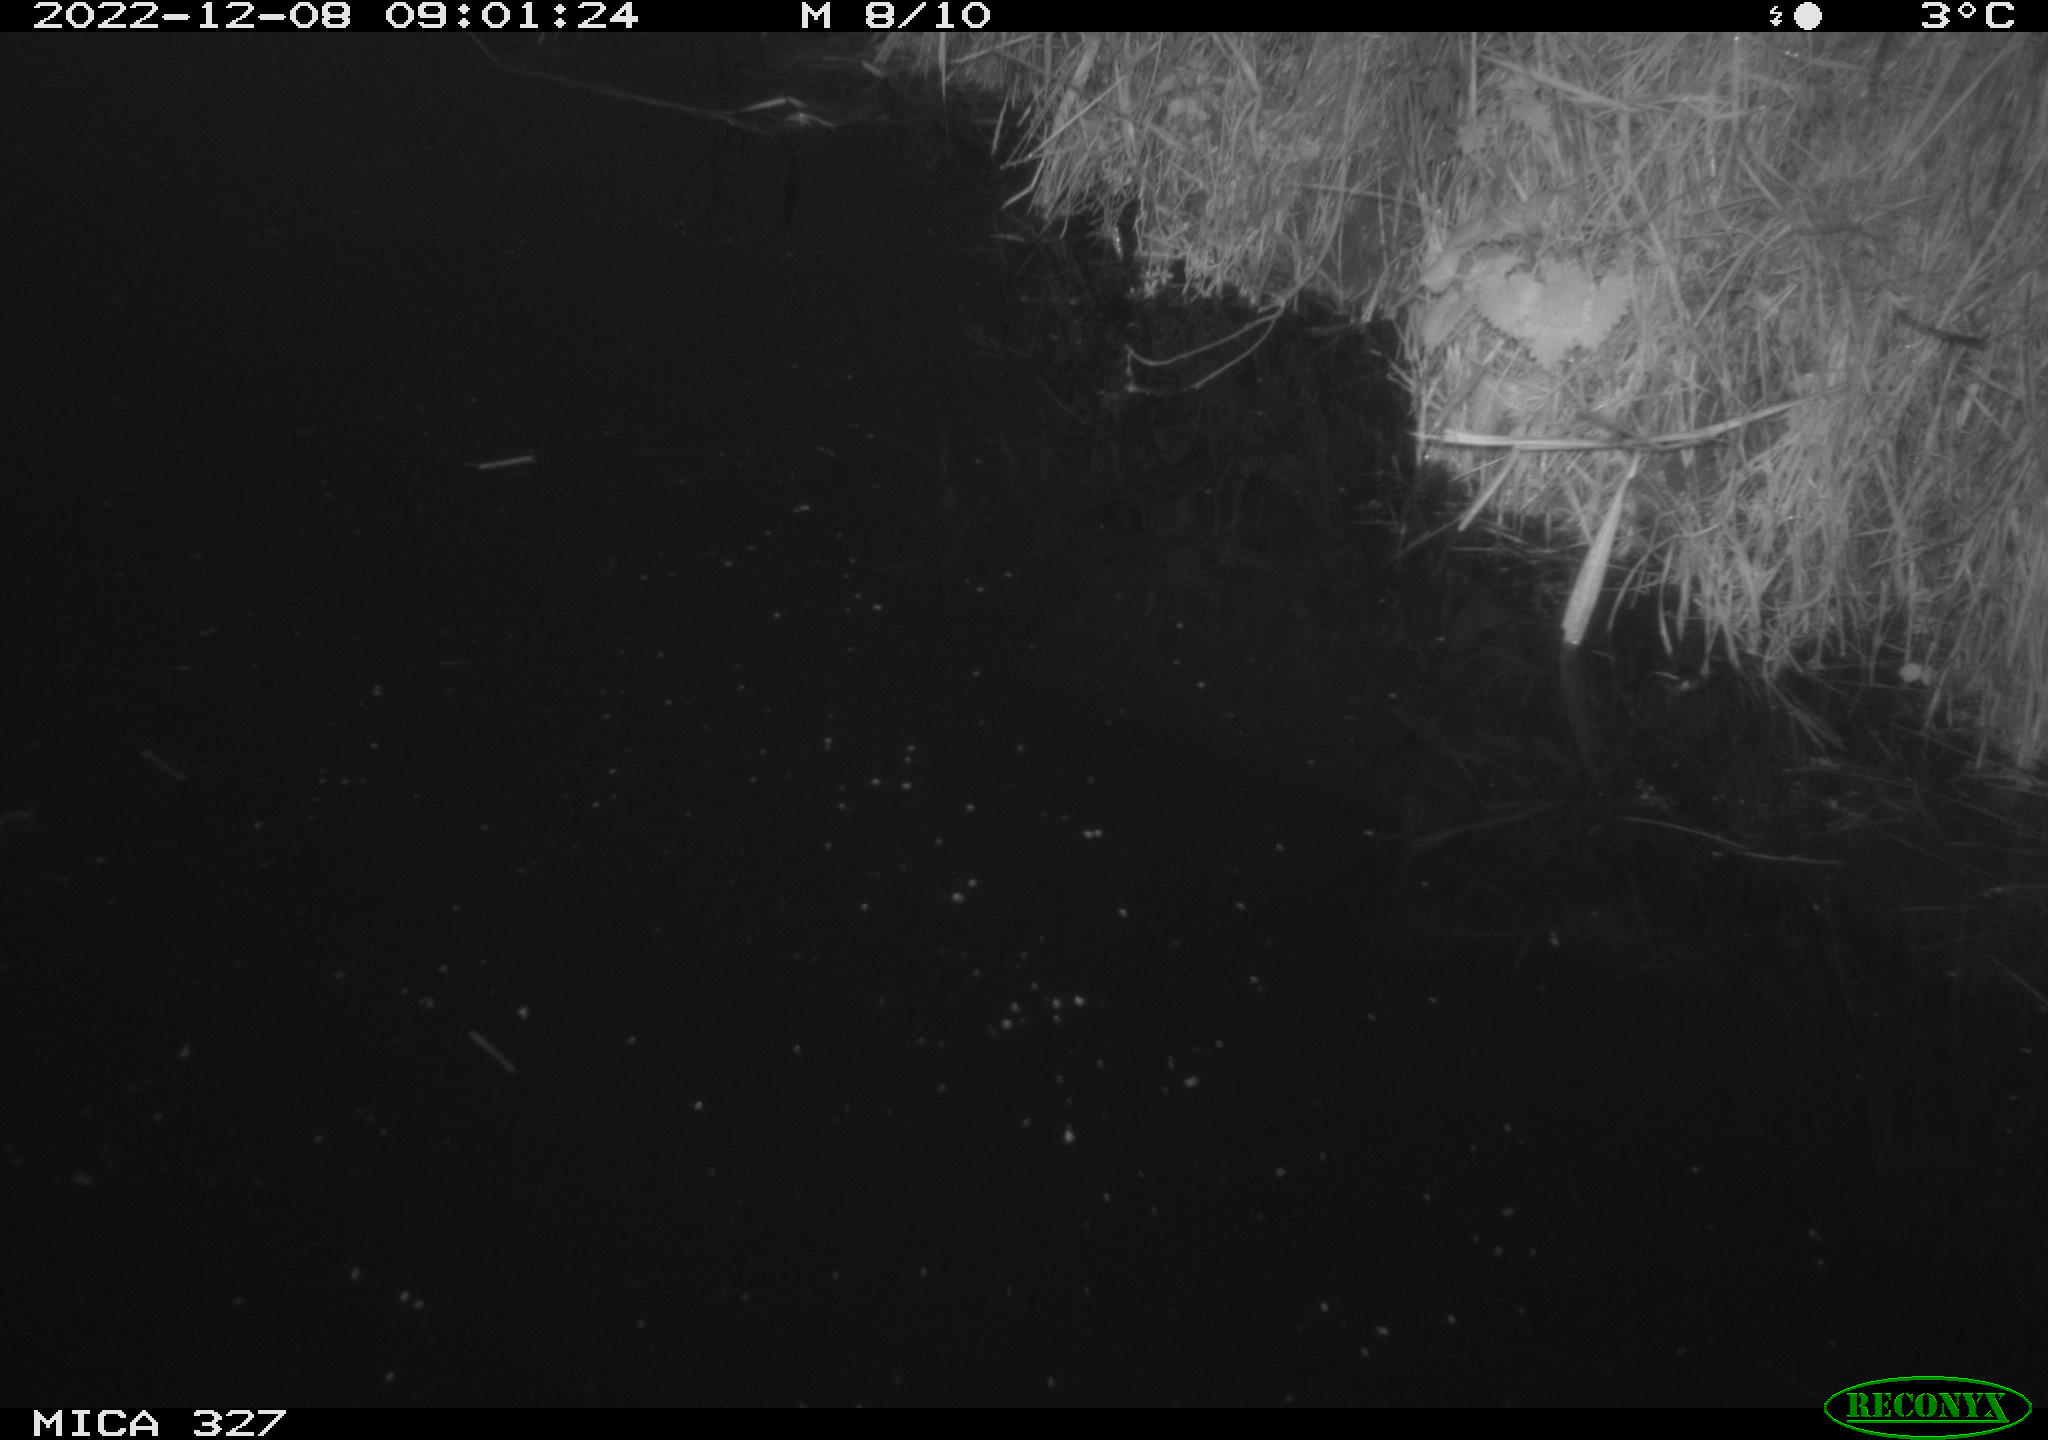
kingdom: Animalia
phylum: Chordata
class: Aves
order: Gruiformes
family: Rallidae
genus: Gallinula
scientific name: Gallinula chloropus
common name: Common moorhen
